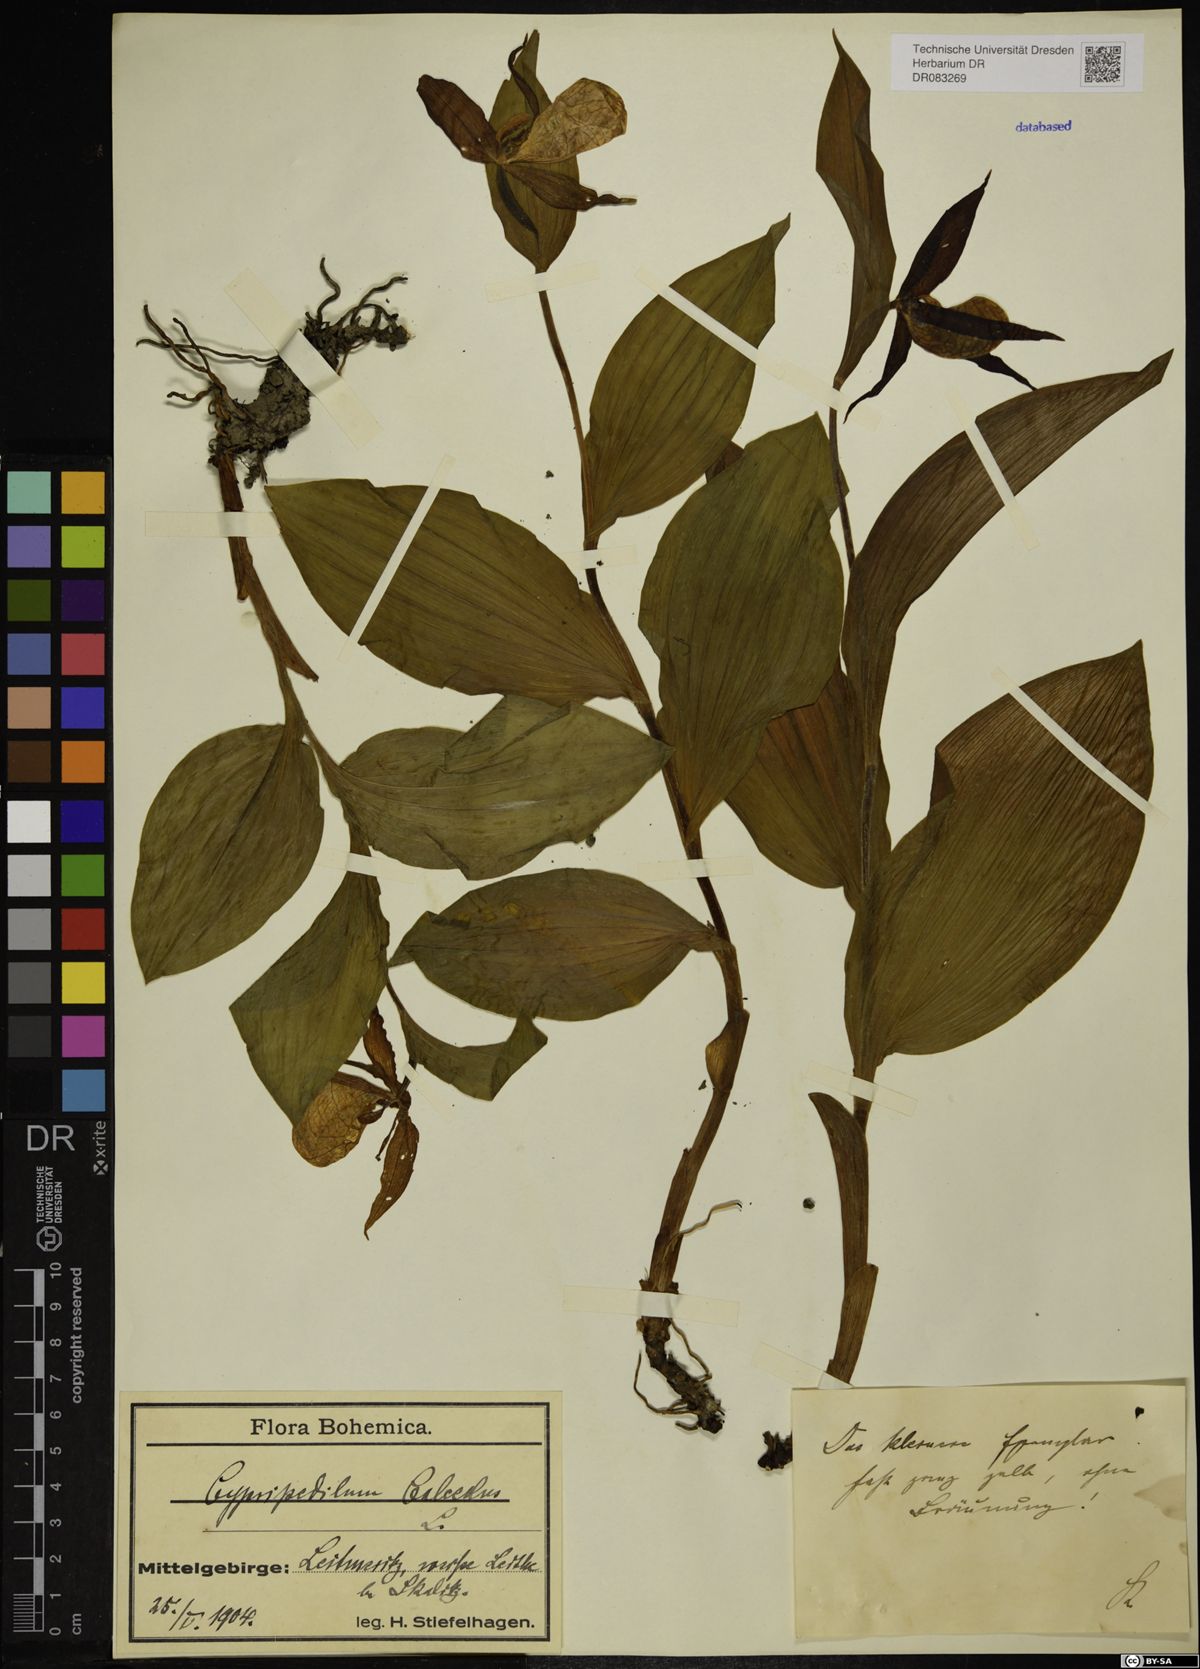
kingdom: Plantae
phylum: Tracheophyta
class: Liliopsida
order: Asparagales
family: Orchidaceae
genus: Cypripedium
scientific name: Cypripedium calceolus
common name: Lady's-slipper
